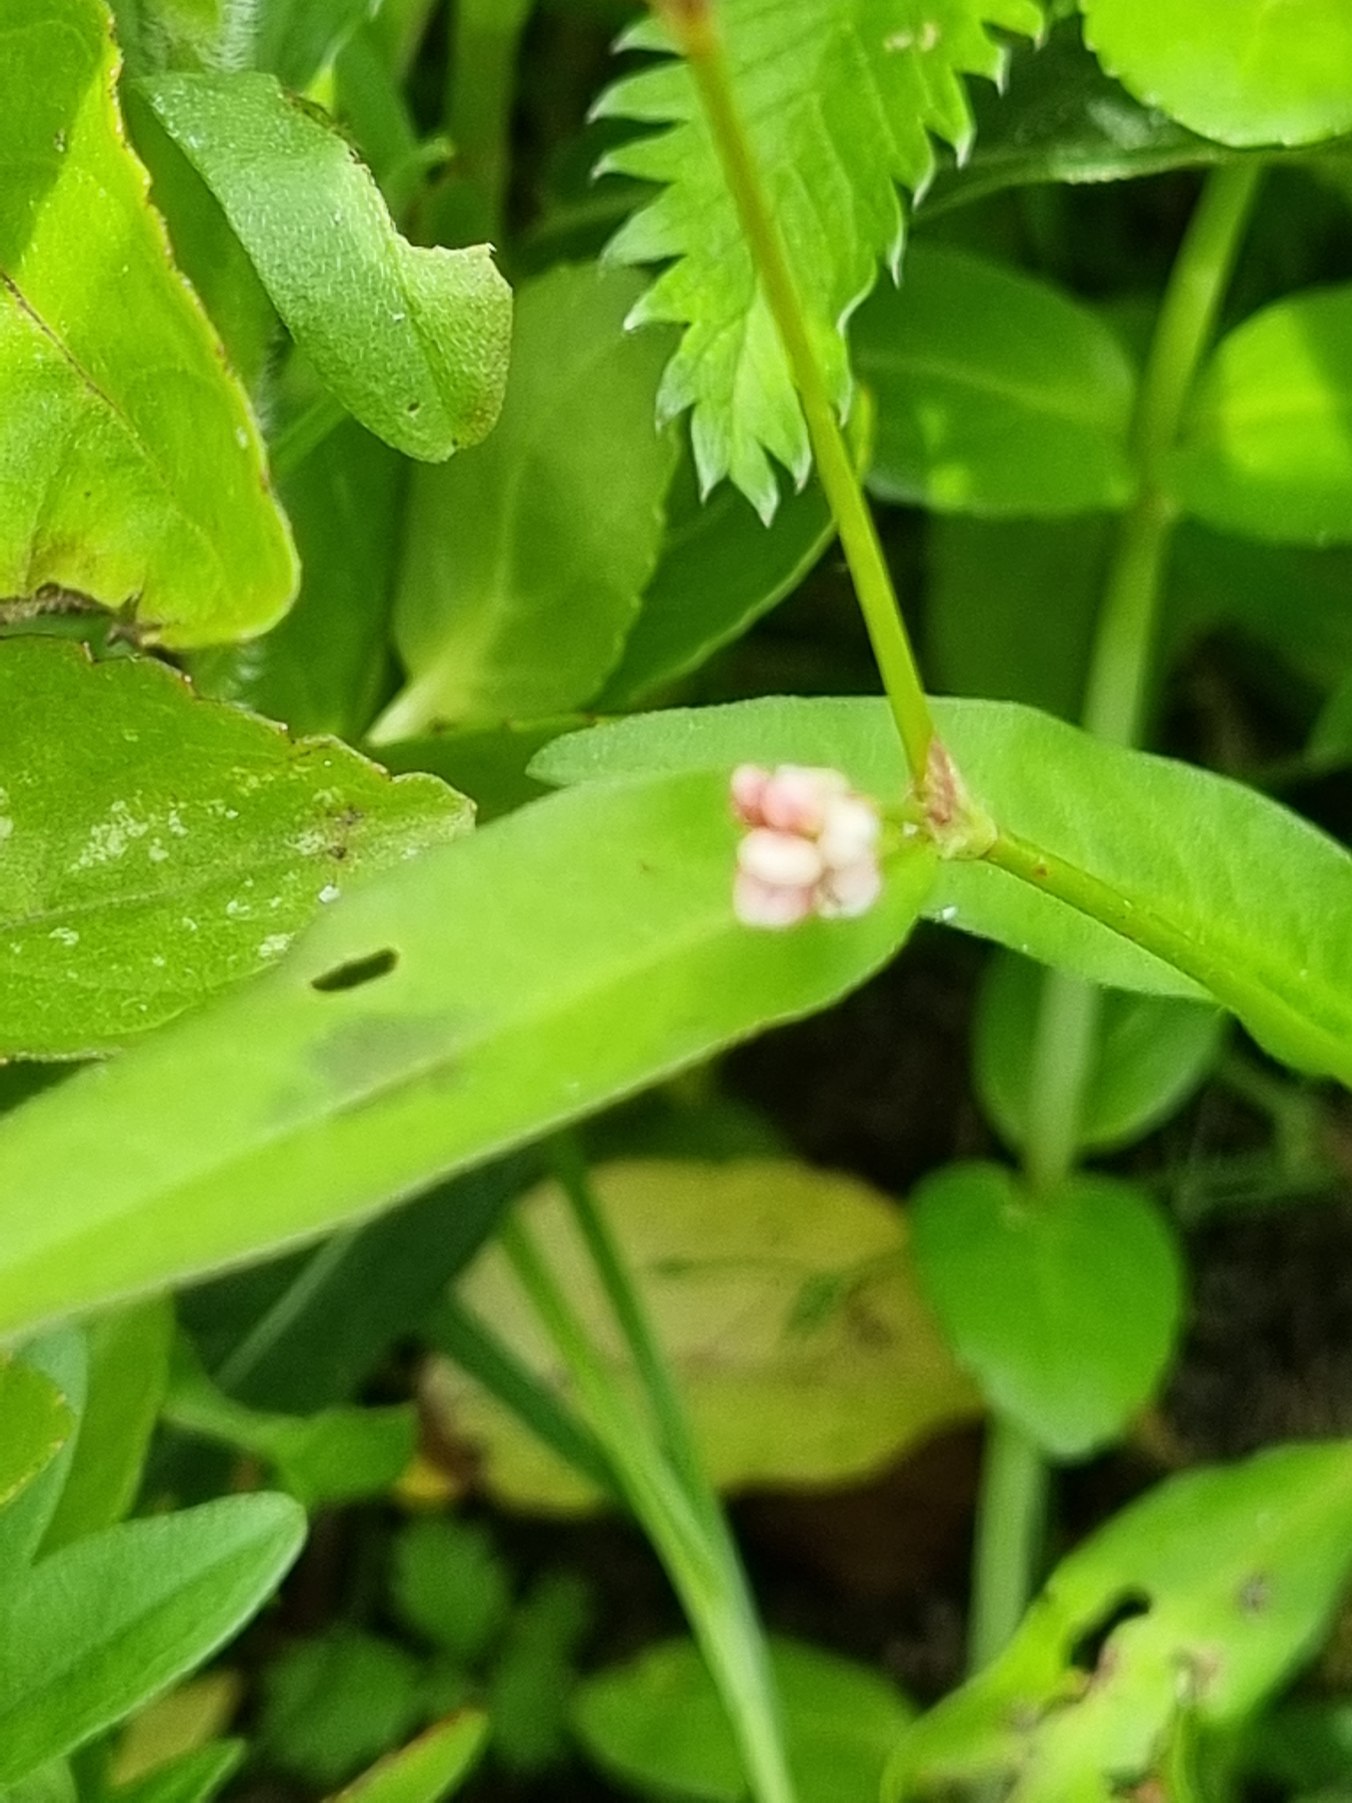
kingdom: Plantae
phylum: Tracheophyta
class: Magnoliopsida
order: Caryophyllales
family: Polygonaceae
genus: Persicaria
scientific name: Persicaria maculosa
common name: Fersken-pileurt
